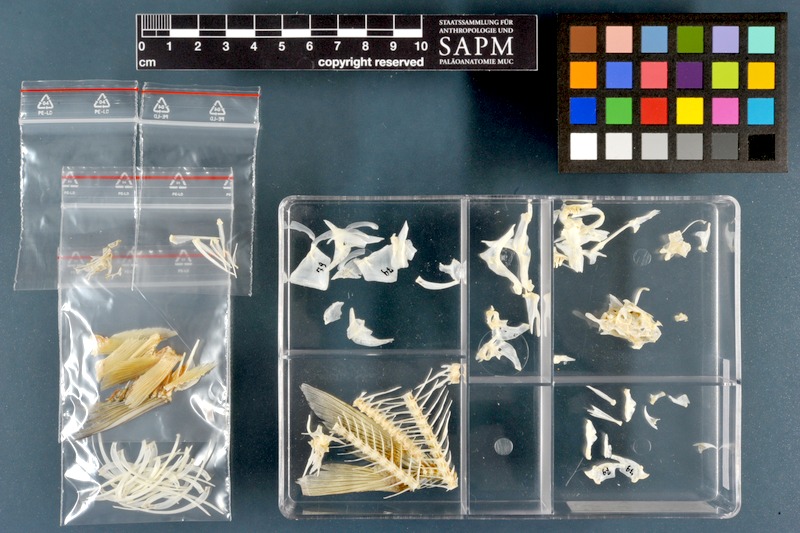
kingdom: Animalia
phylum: Chordata
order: Cypriniformes
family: Cyprinidae
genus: Acanthobrama
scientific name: Acanthobrama marmid
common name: Mesopotamian bream
